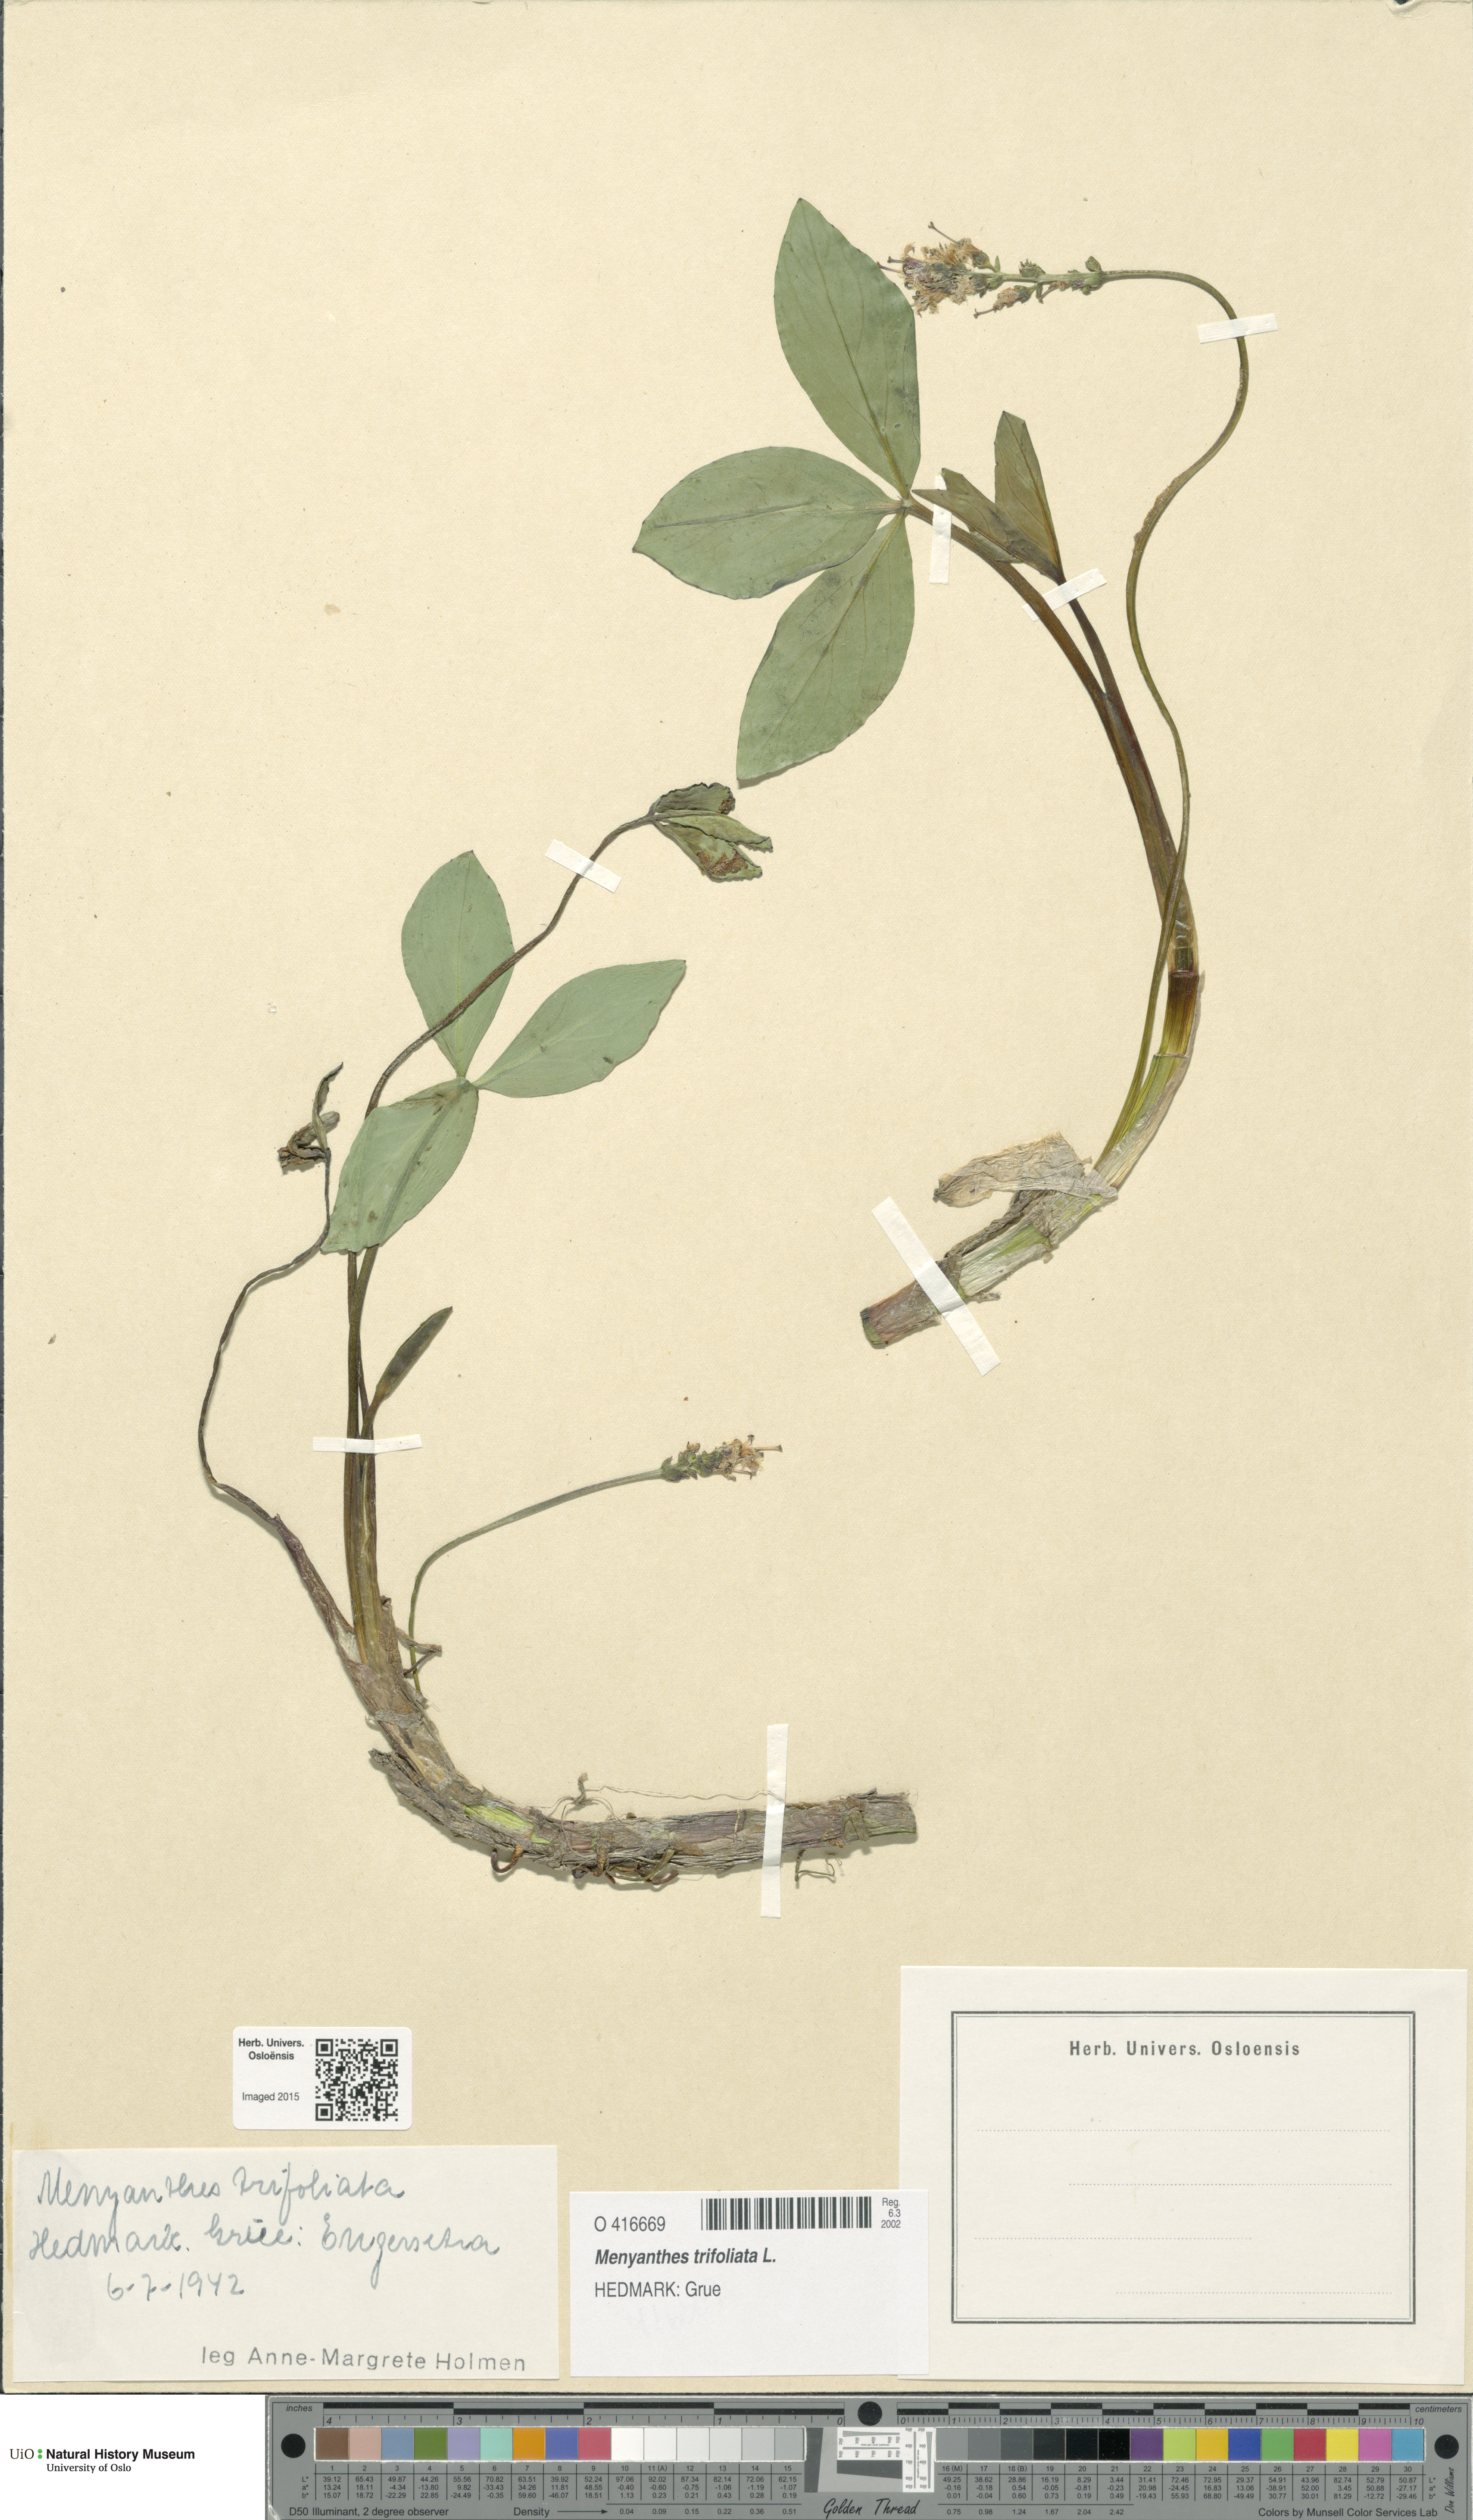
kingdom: Plantae
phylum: Tracheophyta
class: Magnoliopsida
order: Asterales
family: Menyanthaceae
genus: Menyanthes
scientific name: Menyanthes trifoliata
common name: Bogbean
